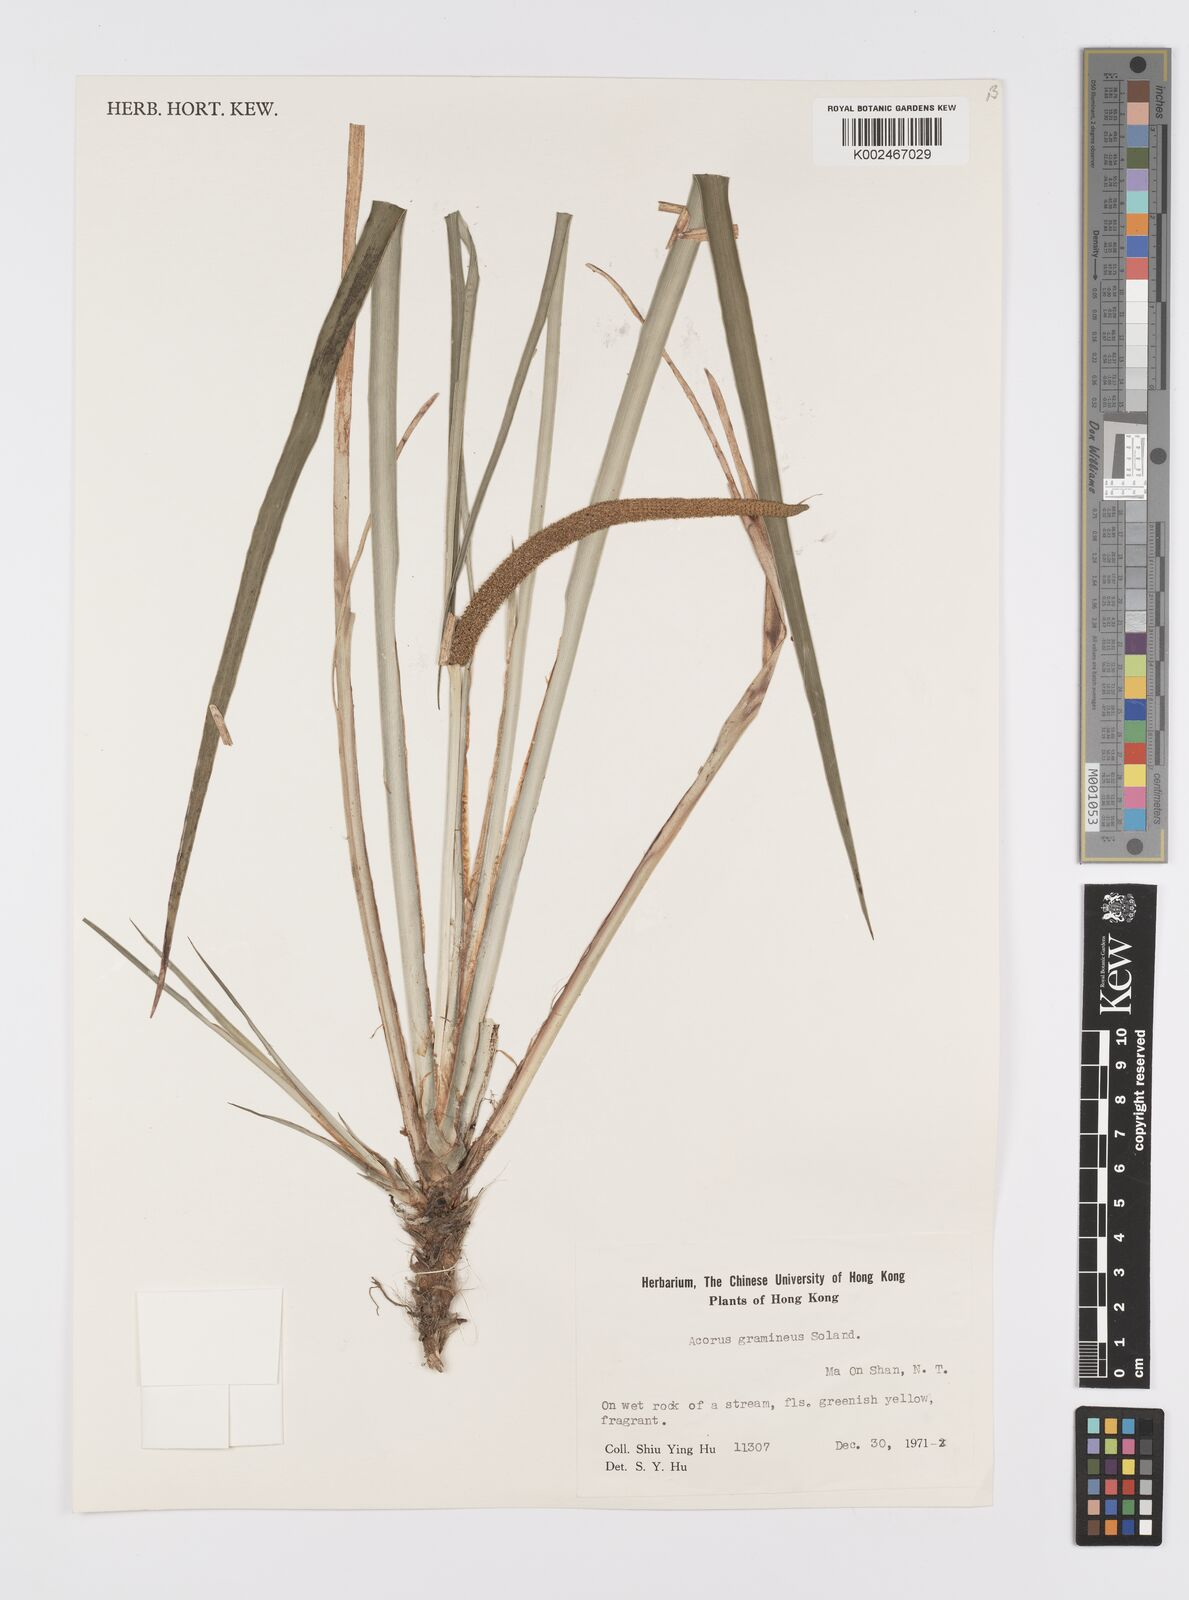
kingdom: Plantae
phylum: Tracheophyta
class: Liliopsida
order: Acorales
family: Acoraceae
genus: Acorus
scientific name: Acorus gramineus
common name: Slender sweet-flag
